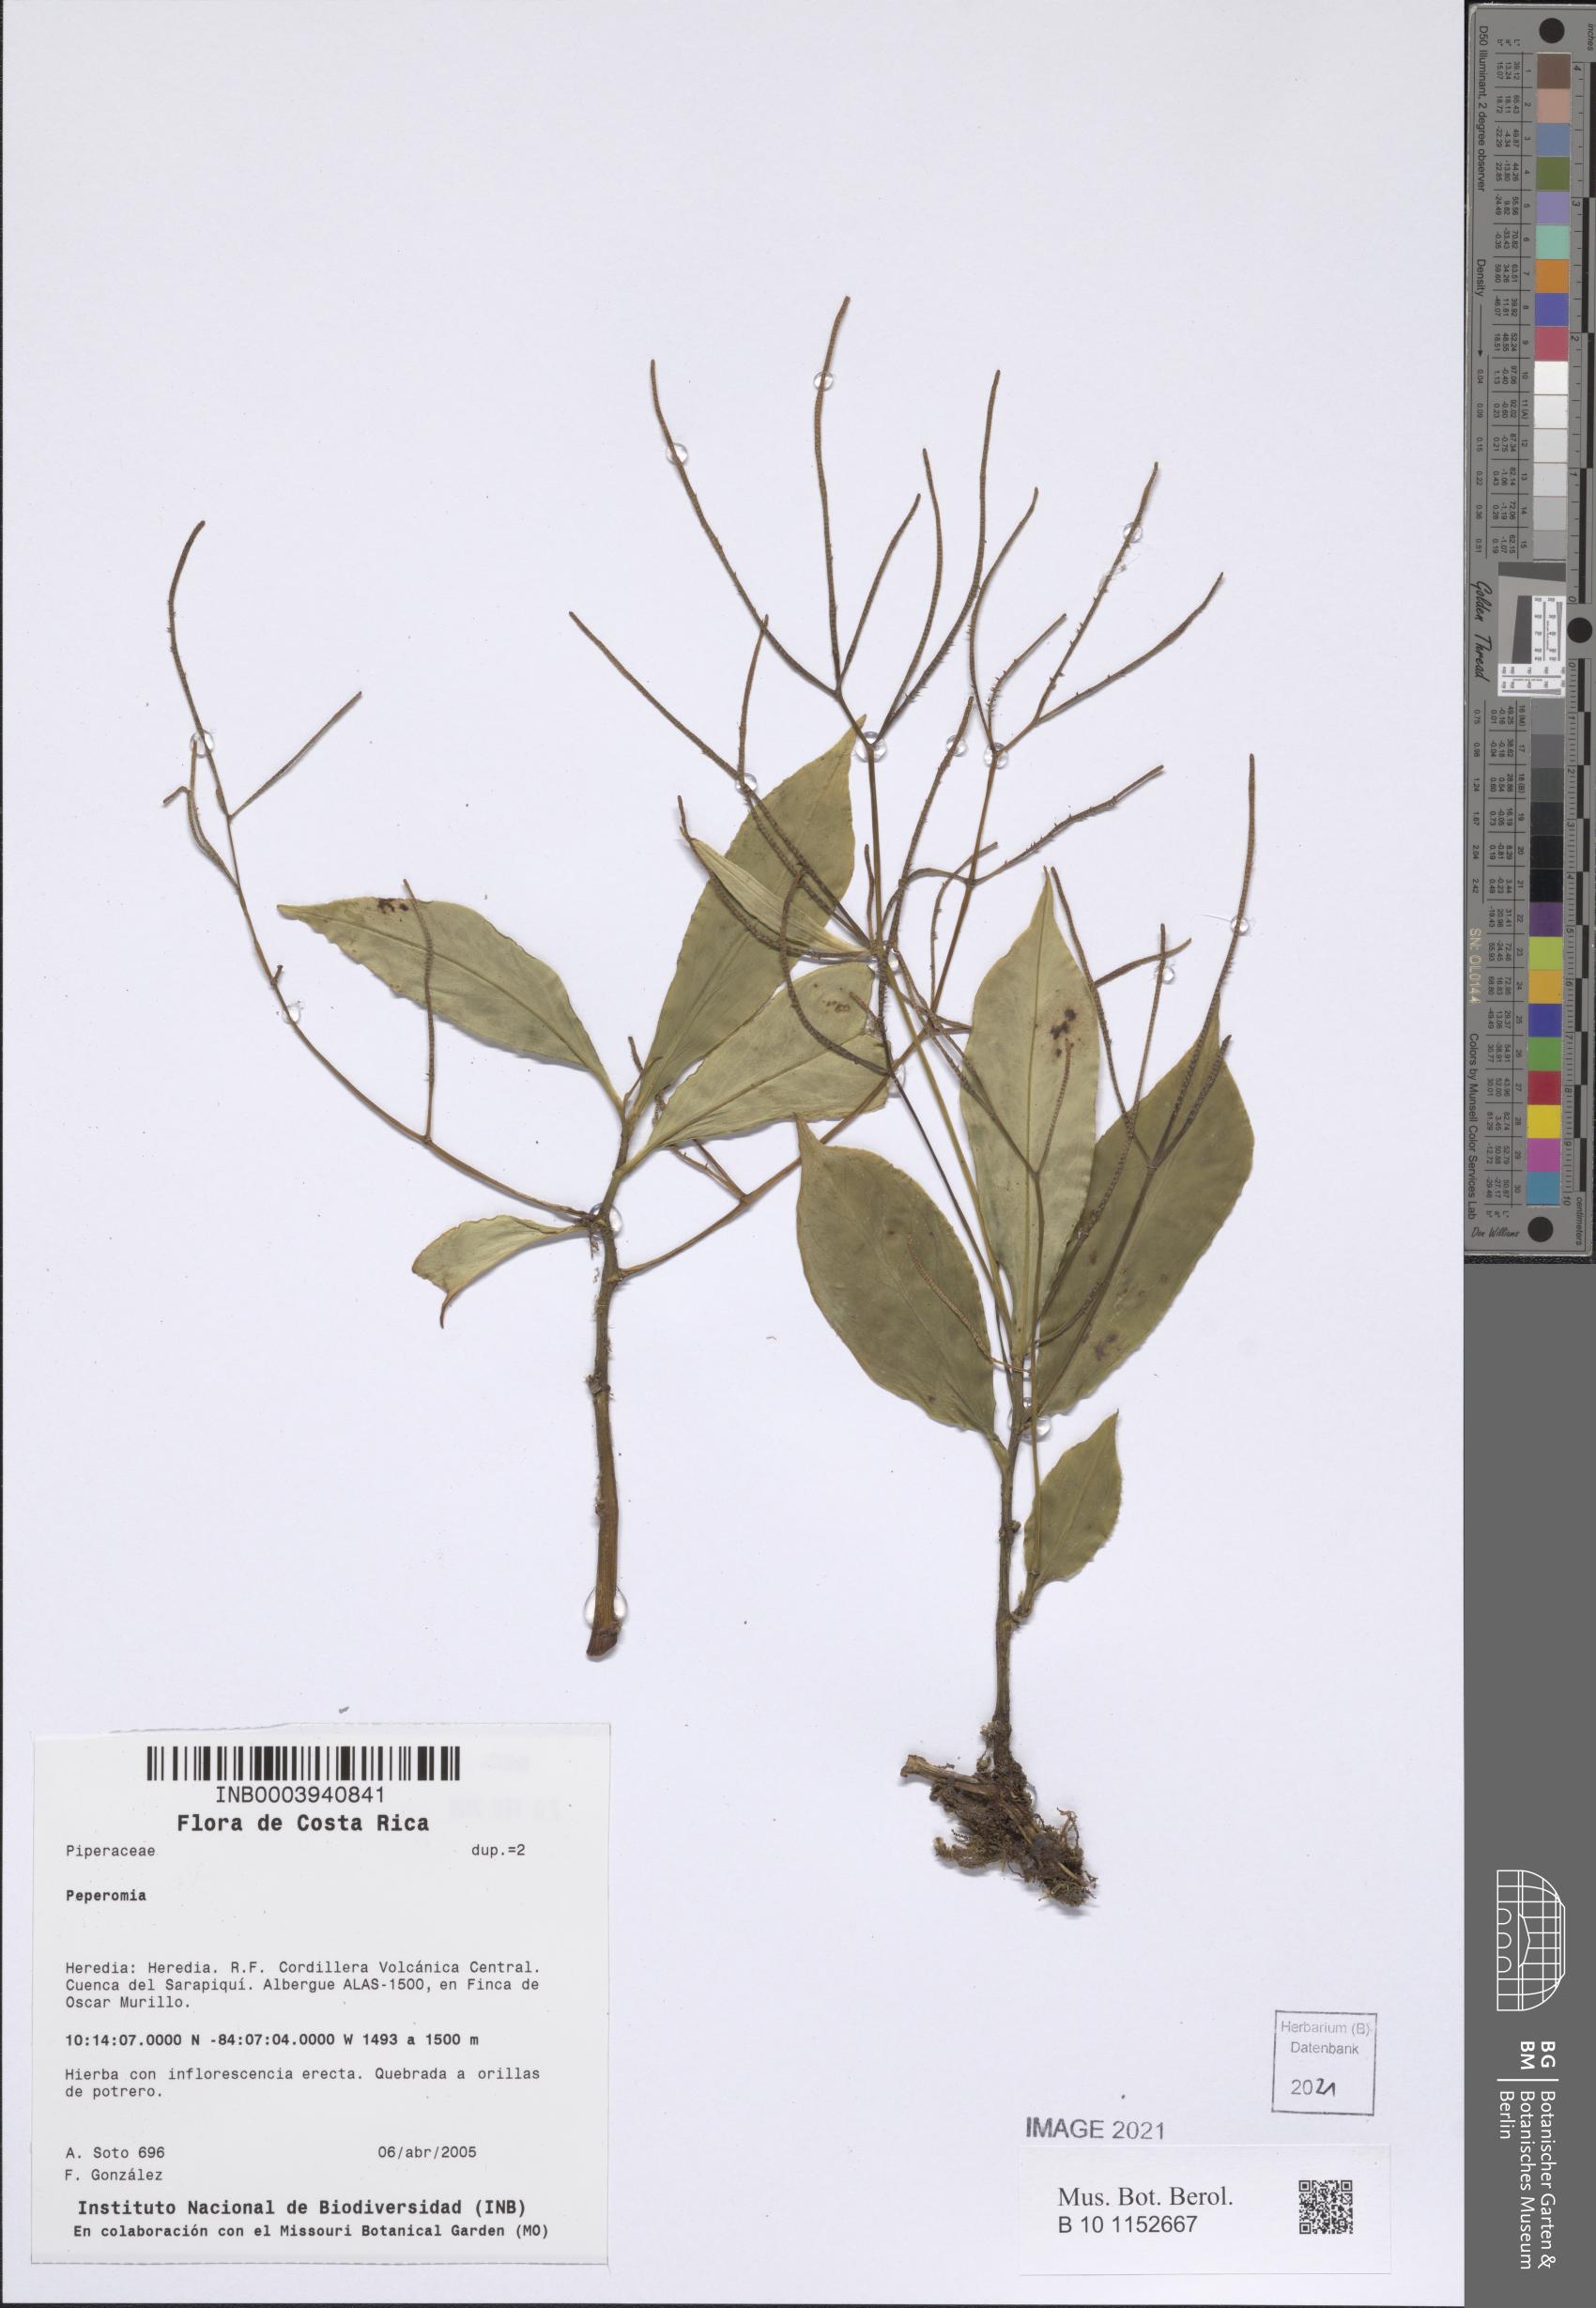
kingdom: Plantae
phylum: Tracheophyta
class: Magnoliopsida
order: Piperales
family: Piperaceae
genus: Peperomia
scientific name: Peperomia
